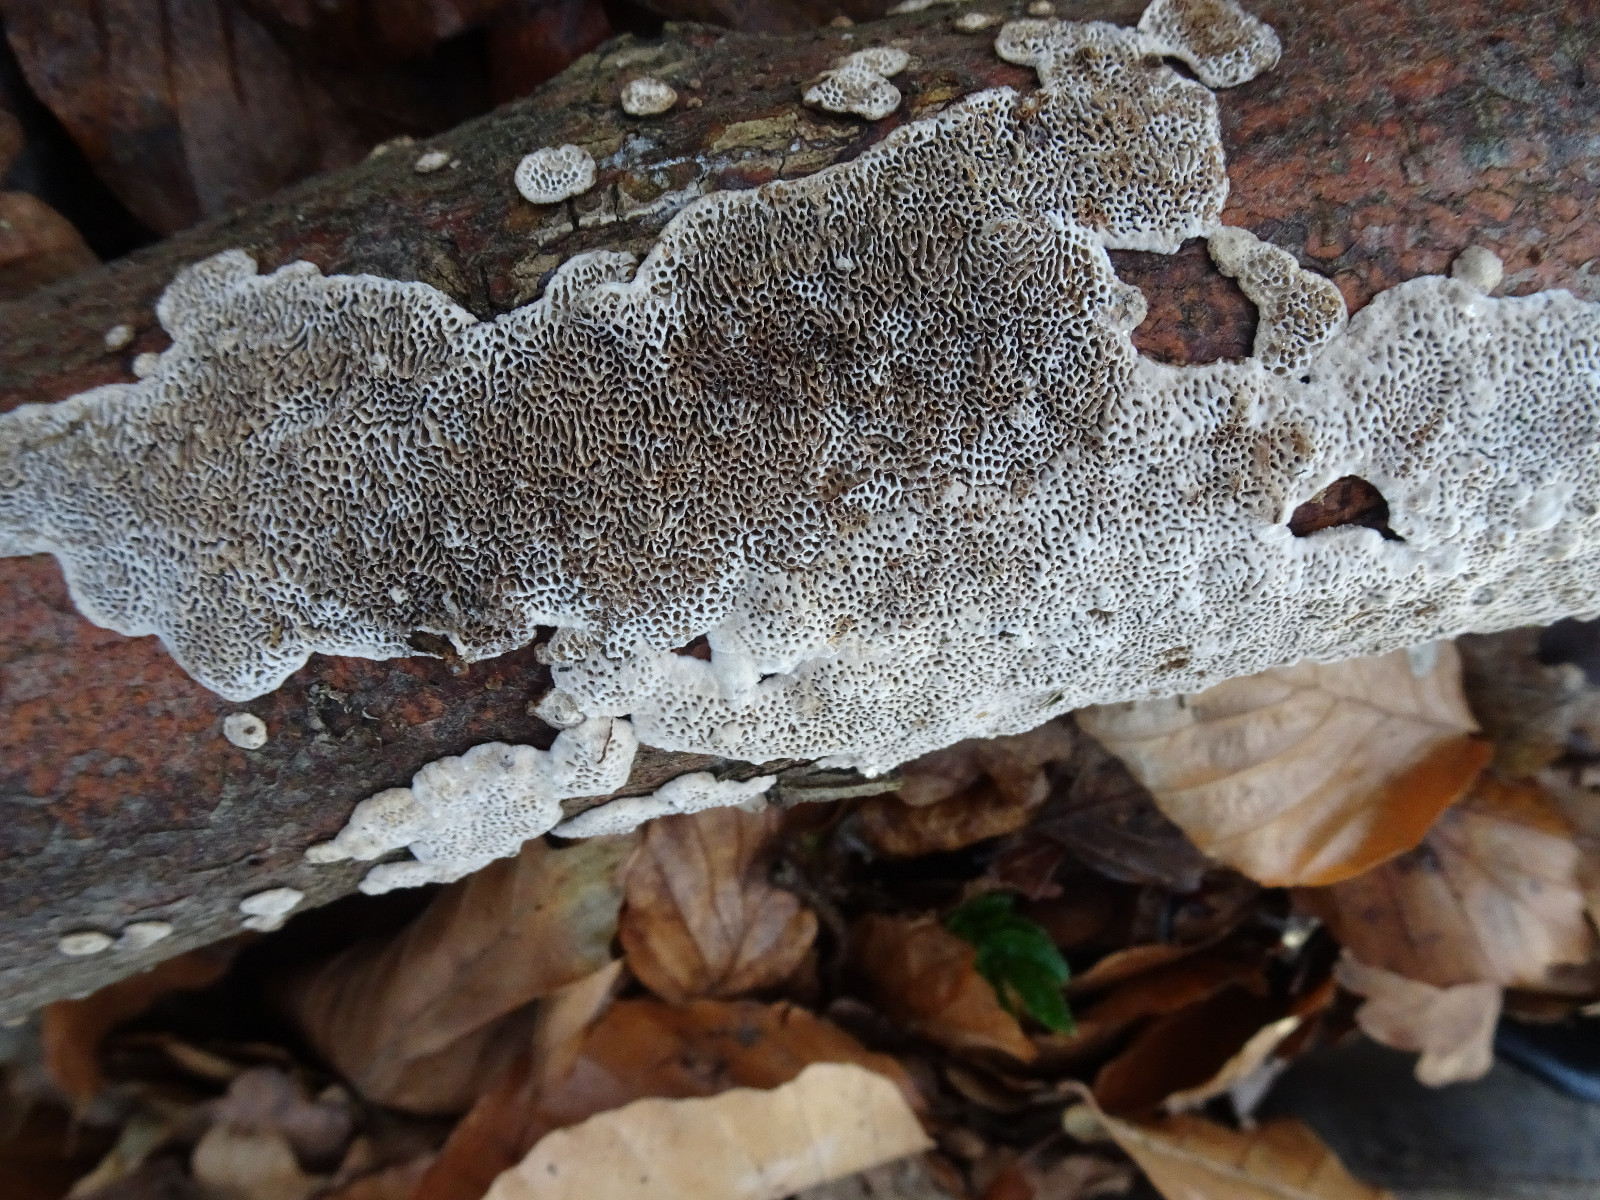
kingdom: Fungi
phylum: Basidiomycota
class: Agaricomycetes
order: Polyporales
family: Polyporaceae
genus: Podofomes
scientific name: Podofomes mollis
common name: blød begporesvamp
